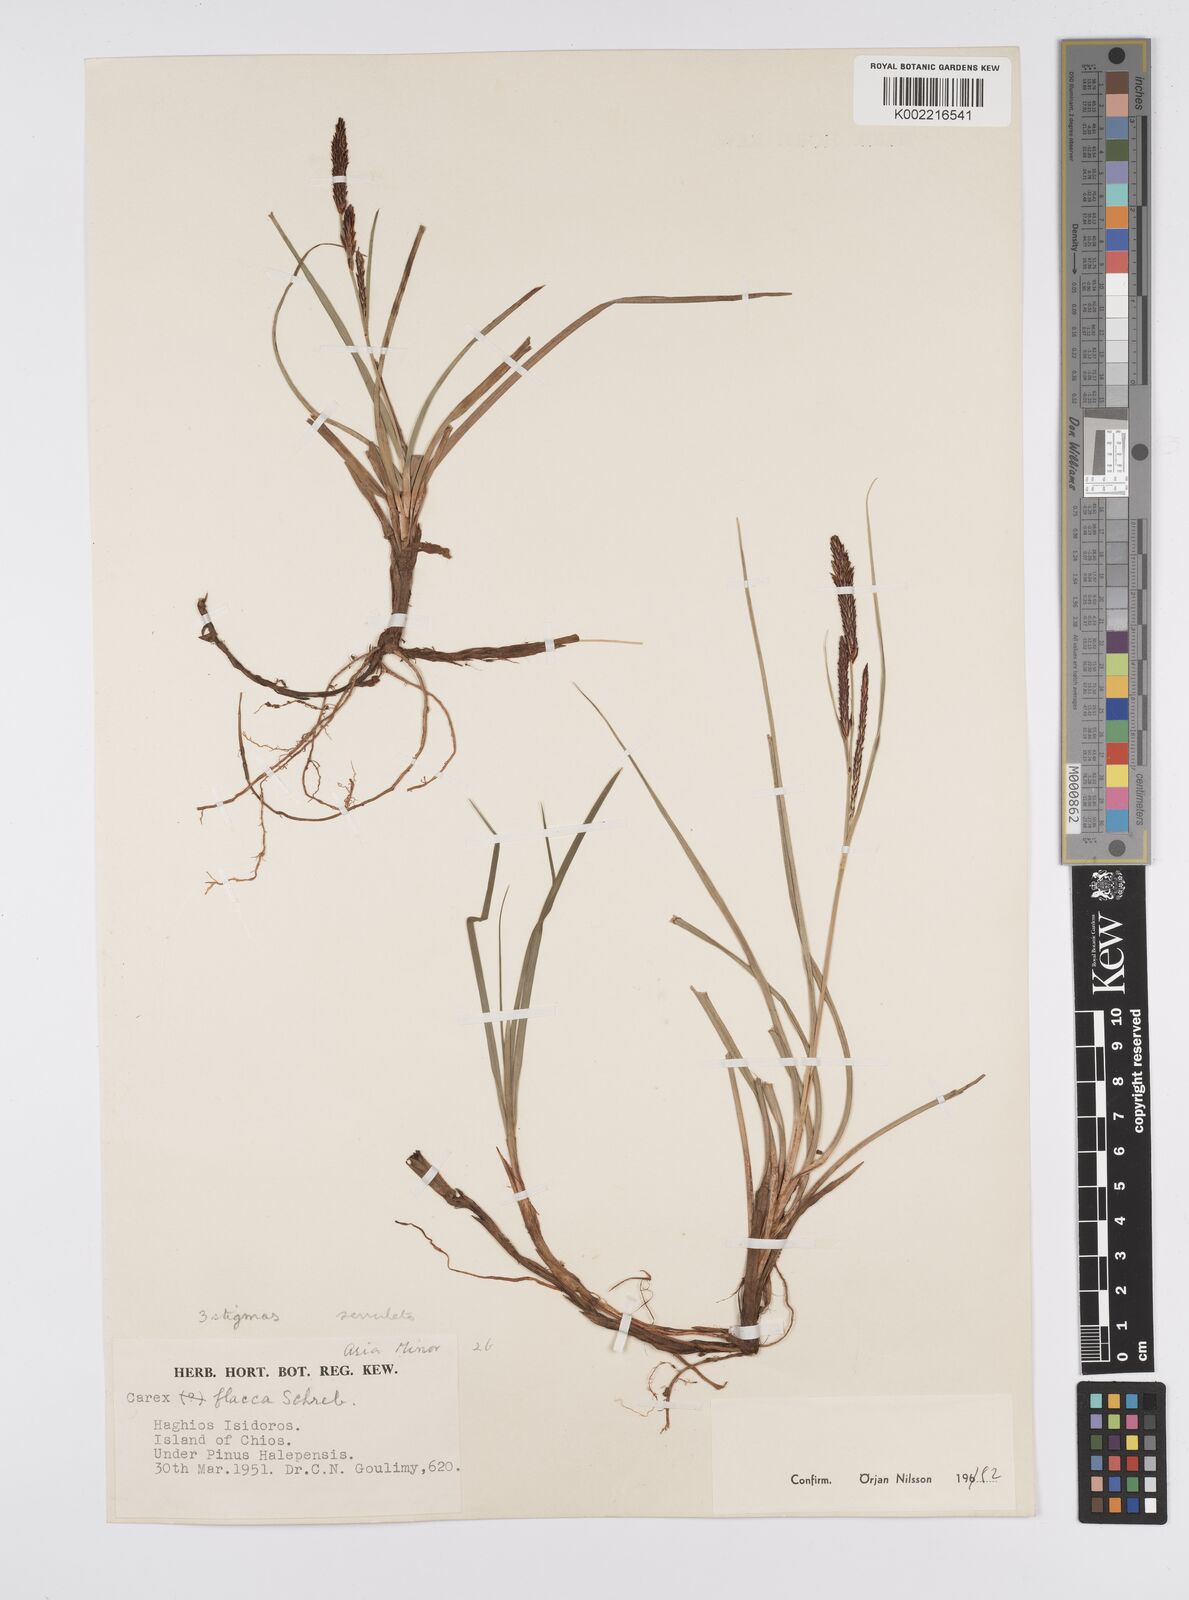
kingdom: Plantae
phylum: Tracheophyta
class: Liliopsida
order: Poales
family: Cyperaceae
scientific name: Cyperaceae
